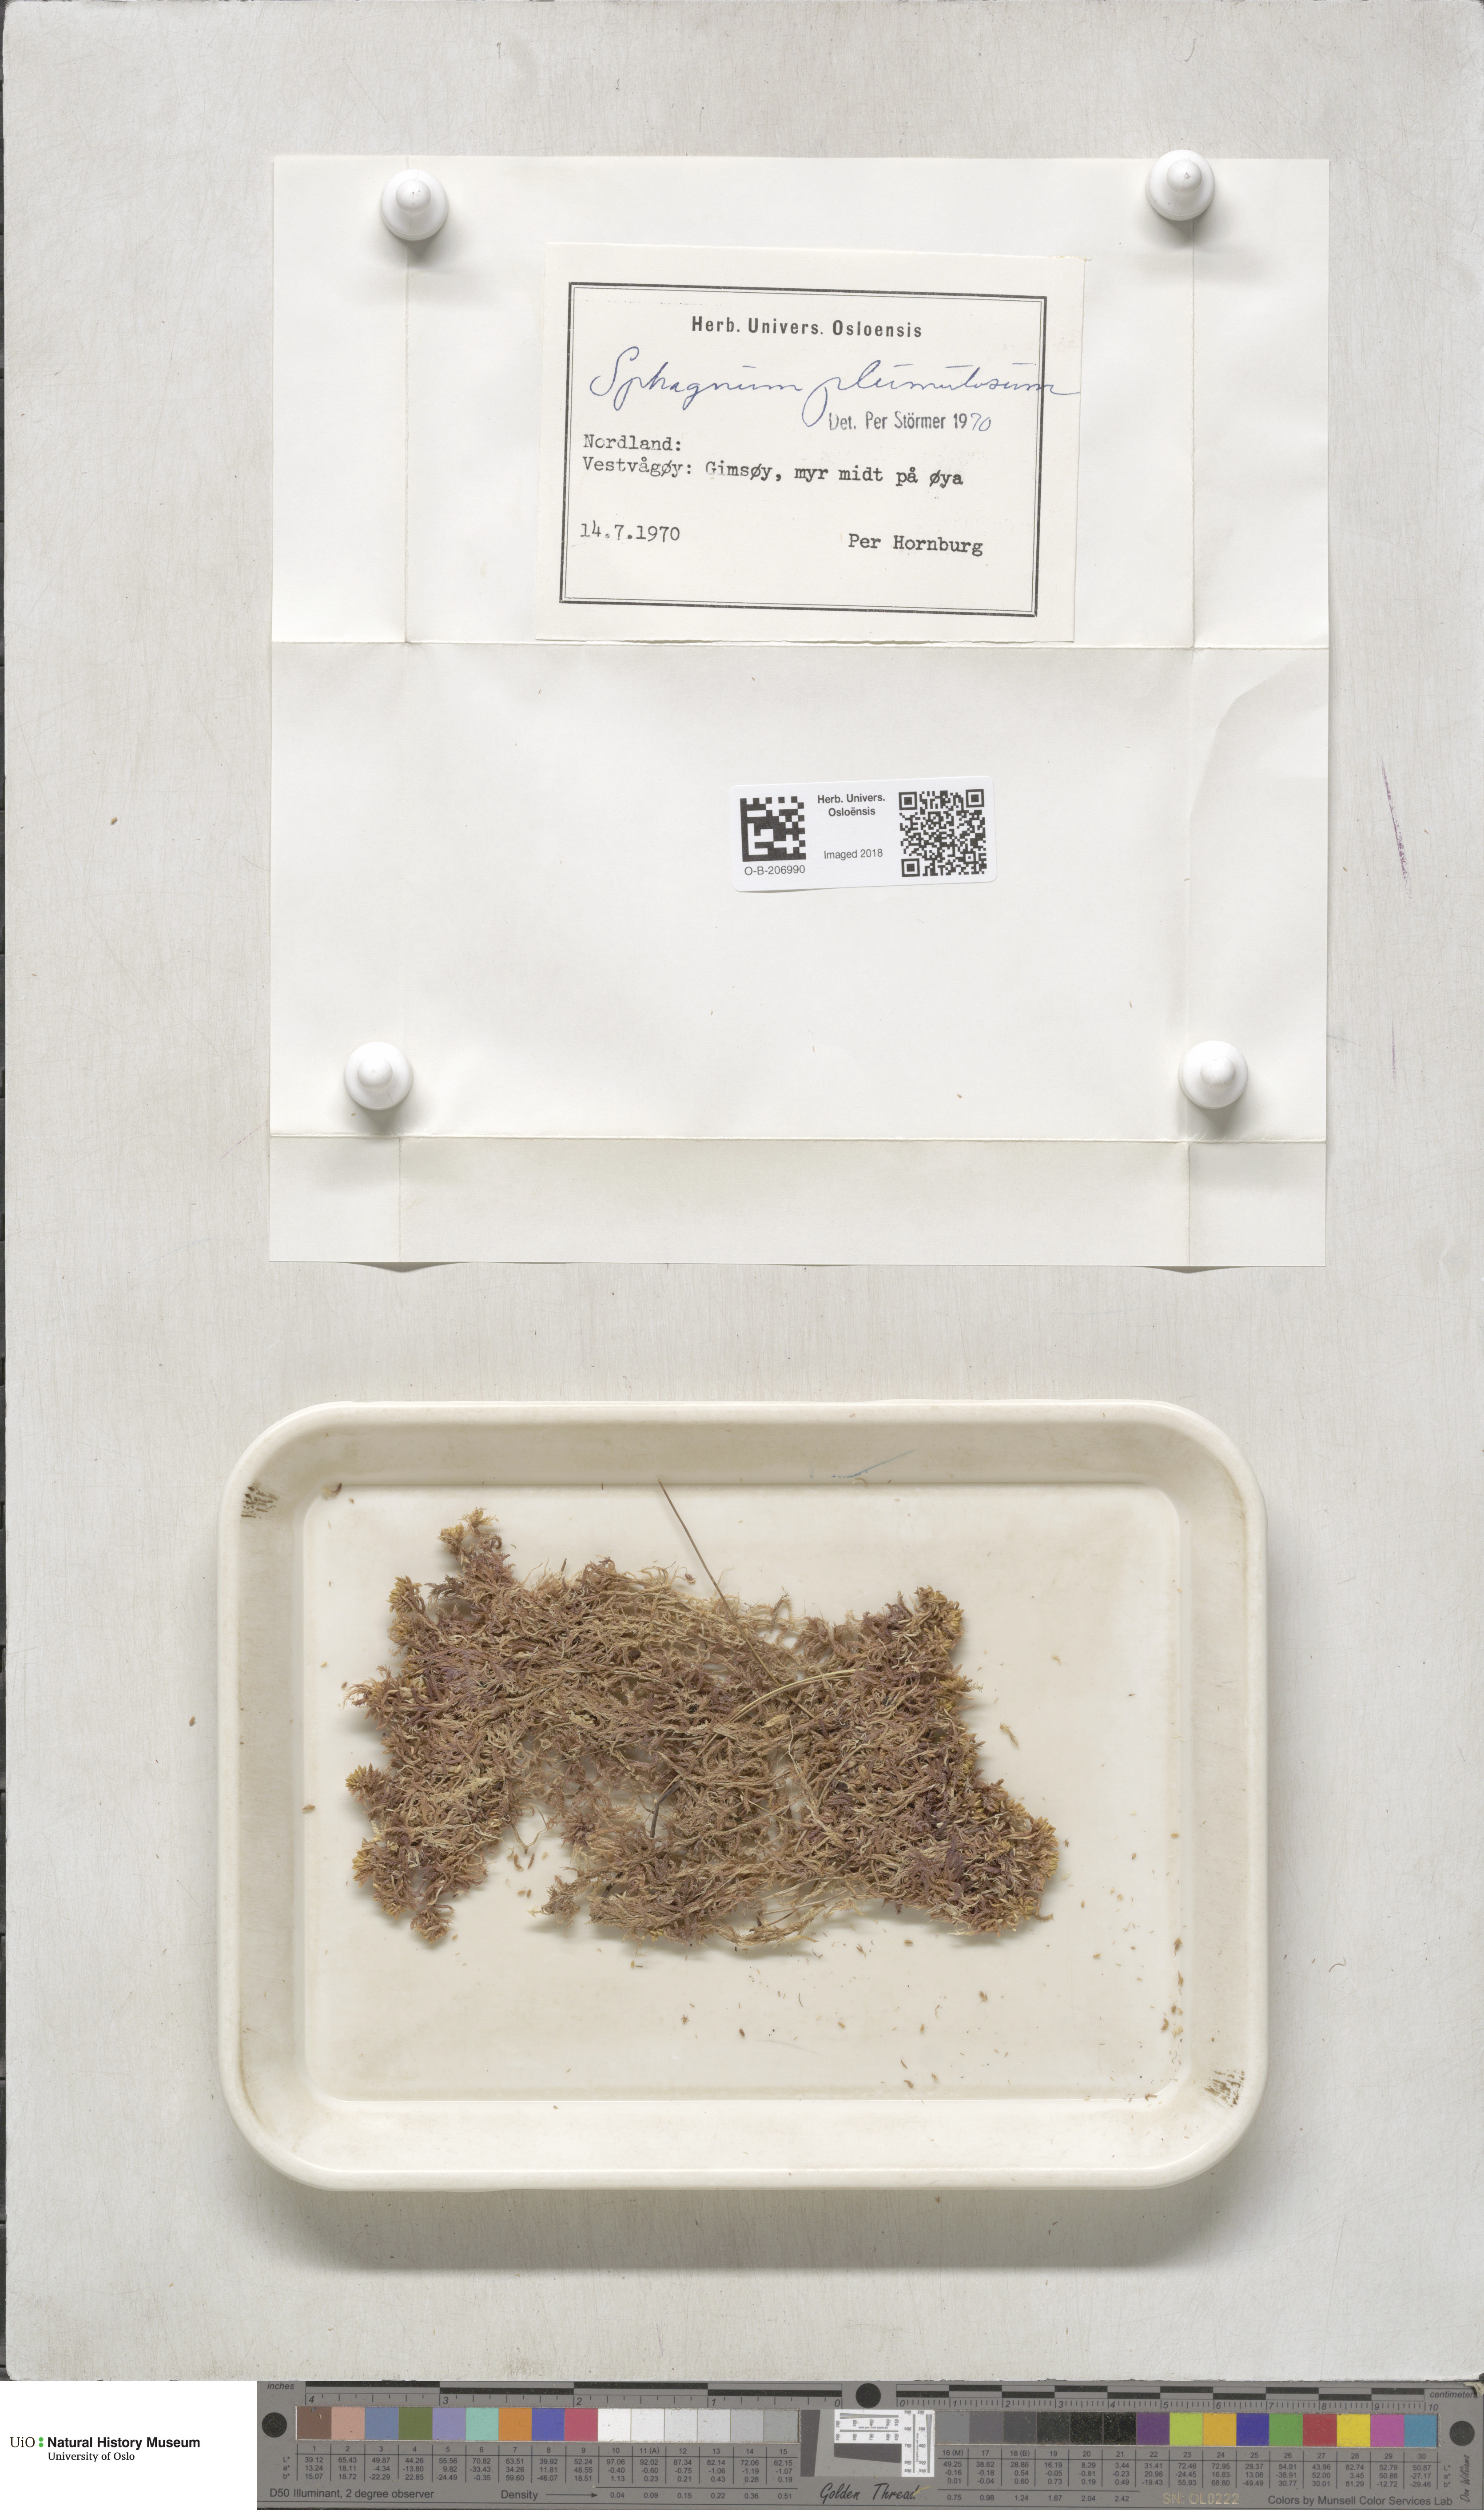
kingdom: Plantae
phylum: Bryophyta
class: Sphagnopsida
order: Sphagnales
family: Sphagnaceae
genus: Sphagnum
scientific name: Sphagnum subnitens
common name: Lustrous bog-moss
